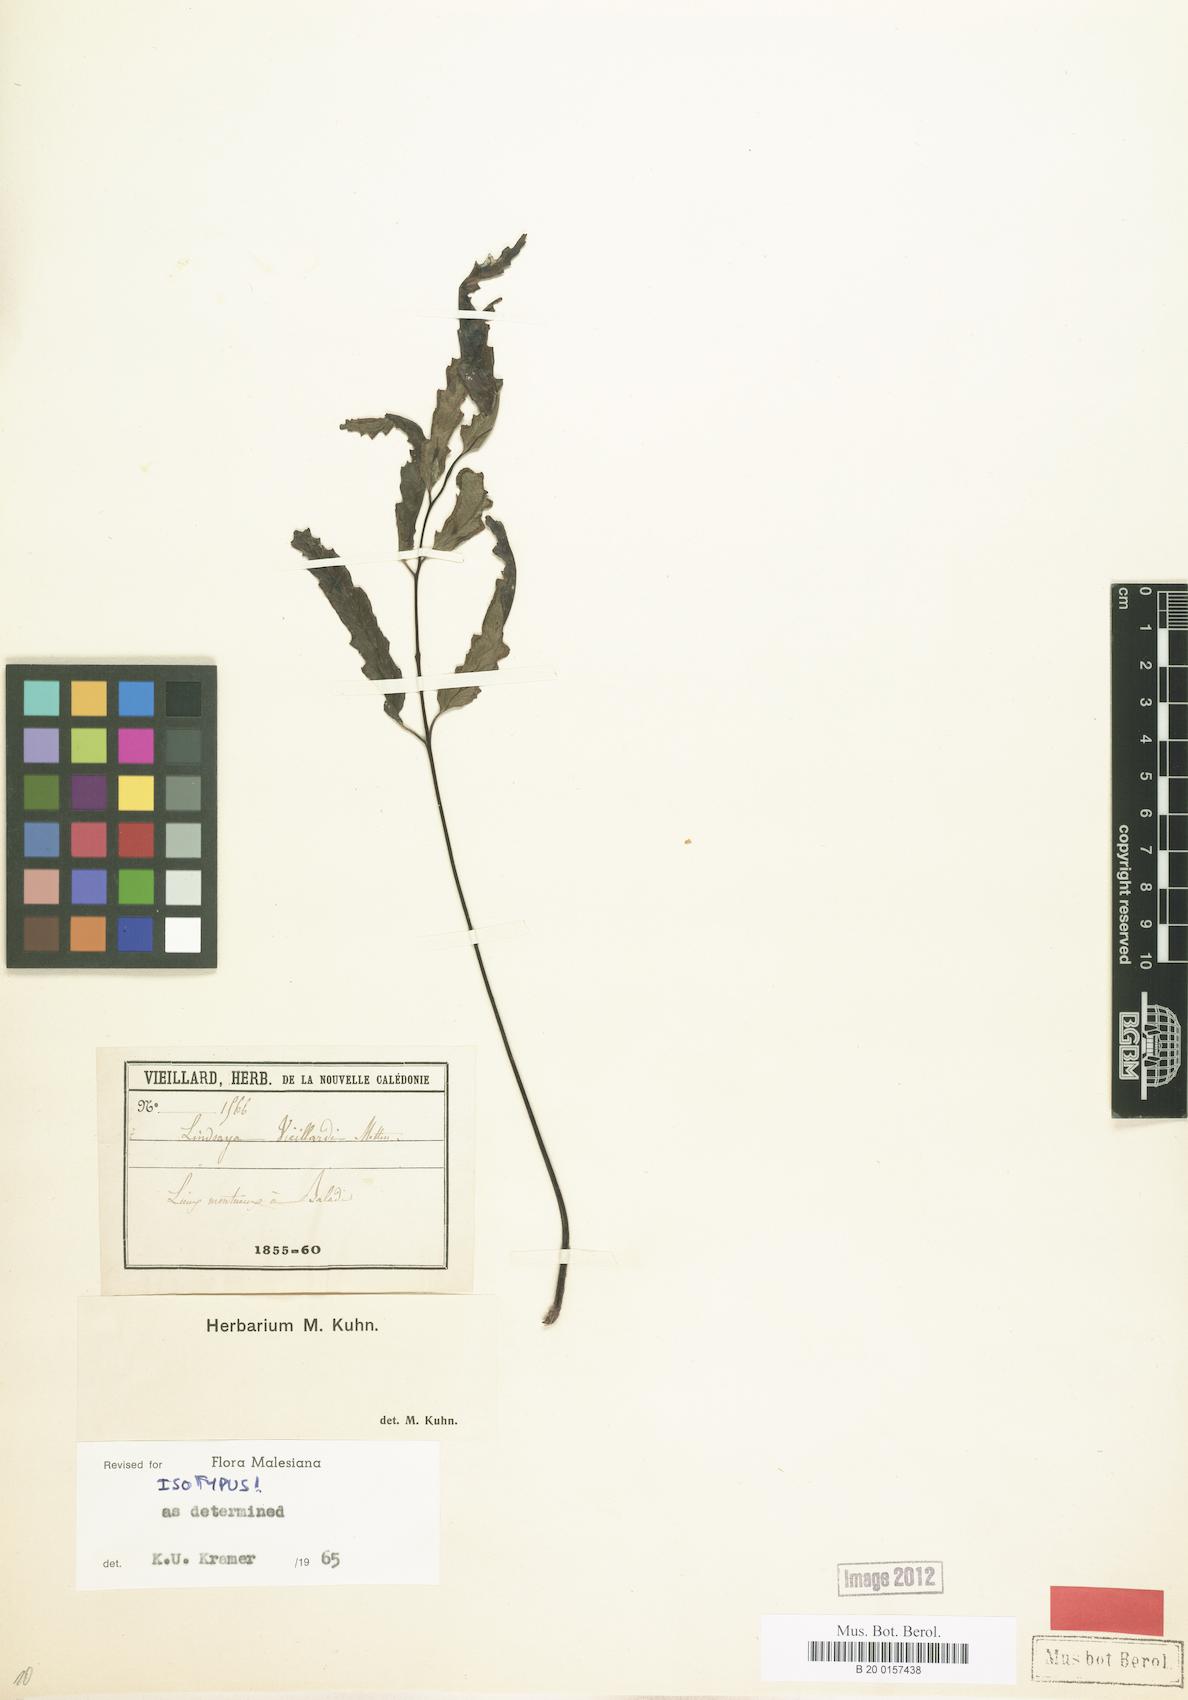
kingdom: Plantae
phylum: Tracheophyta
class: Polypodiopsida
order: Polypodiales
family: Lindsaeaceae
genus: Lindsaea
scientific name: Lindsaea vieillardii
